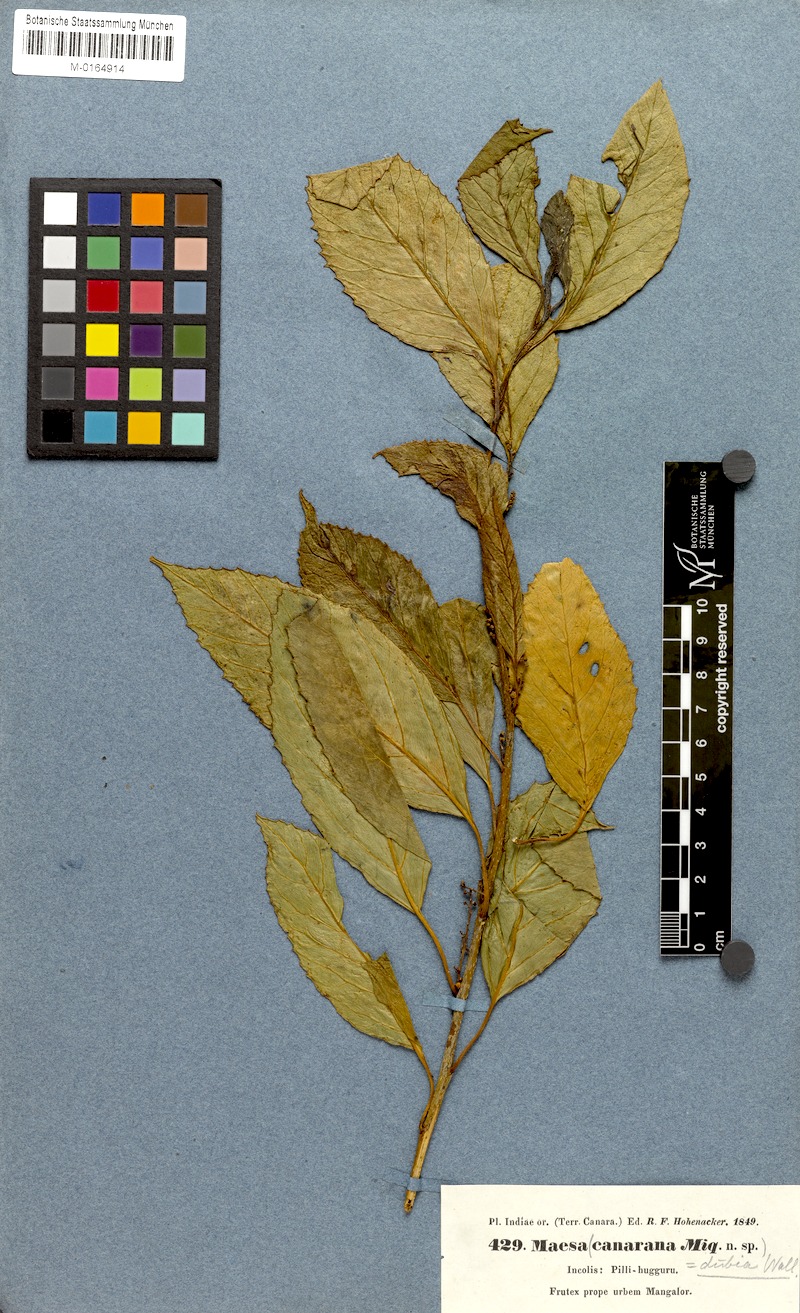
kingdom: Plantae
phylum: Tracheophyta
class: Magnoliopsida
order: Ericales
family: Primulaceae
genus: Maesa
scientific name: Maesa dubia
